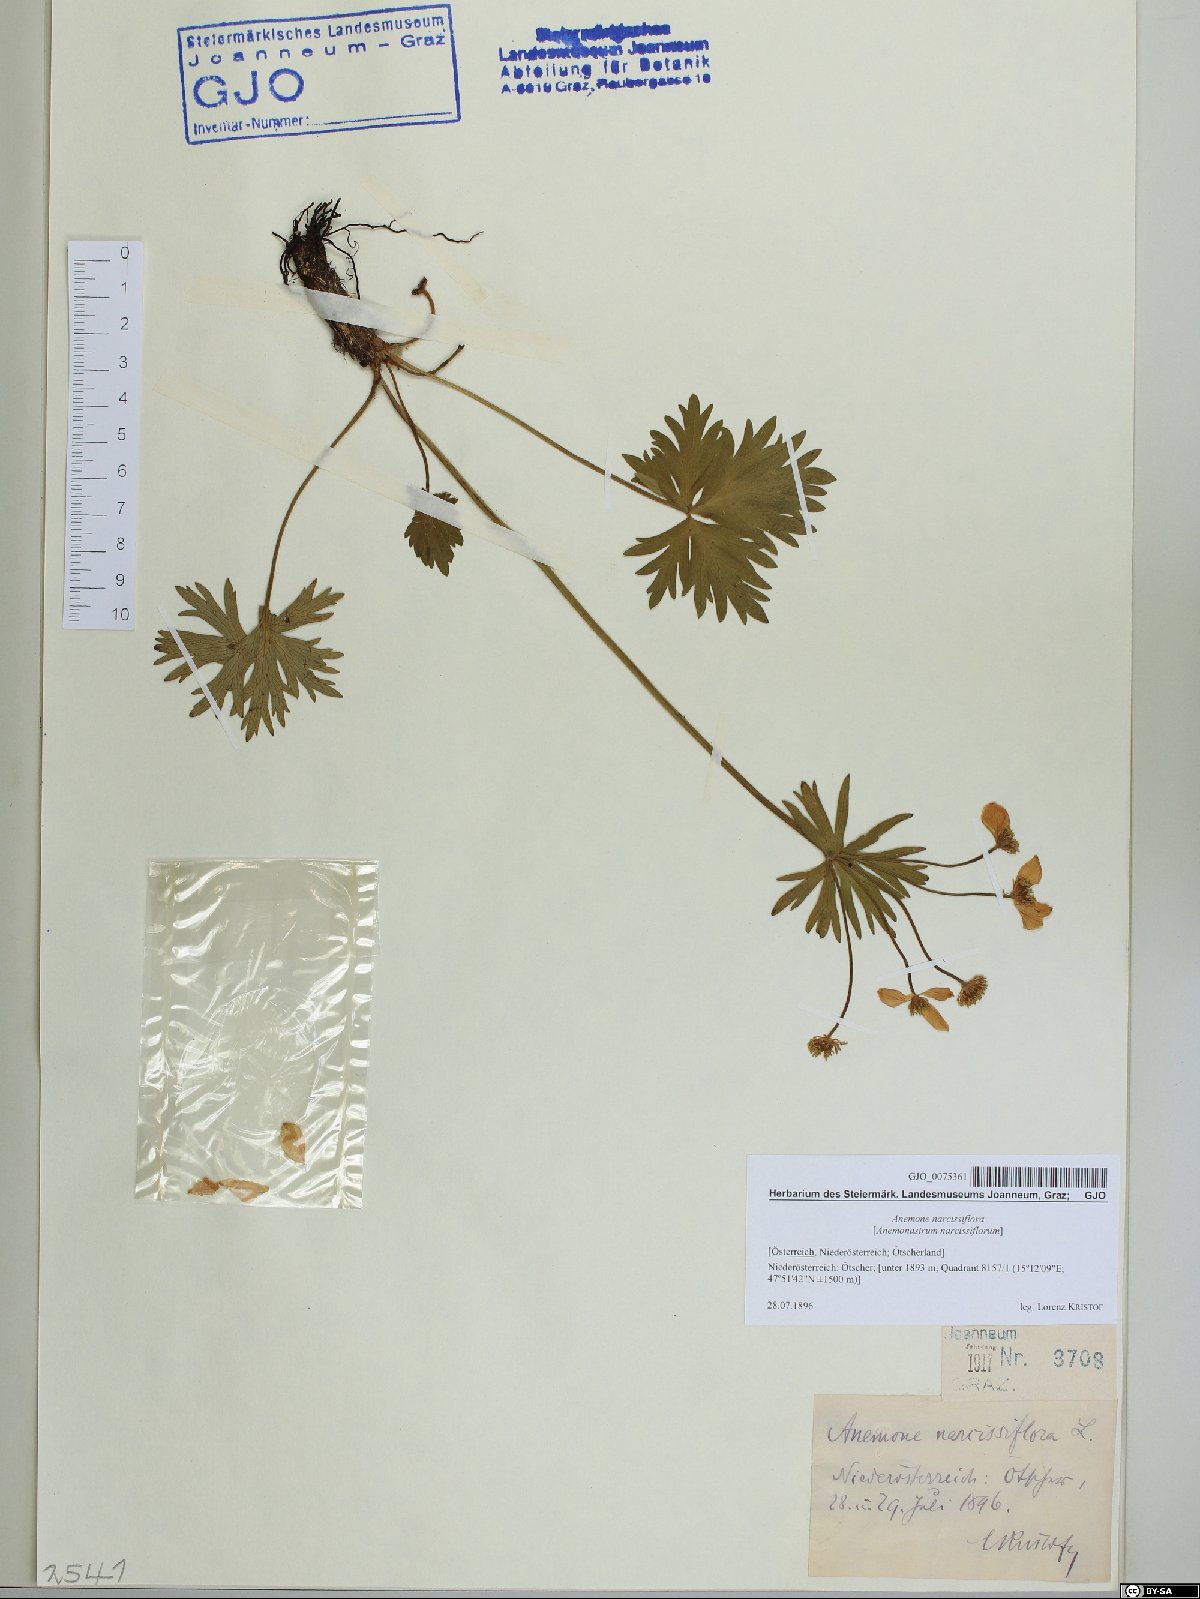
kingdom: Plantae
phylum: Tracheophyta
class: Magnoliopsida
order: Ranunculales
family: Ranunculaceae
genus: Anemonastrum
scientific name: Anemonastrum narcissiflorum
